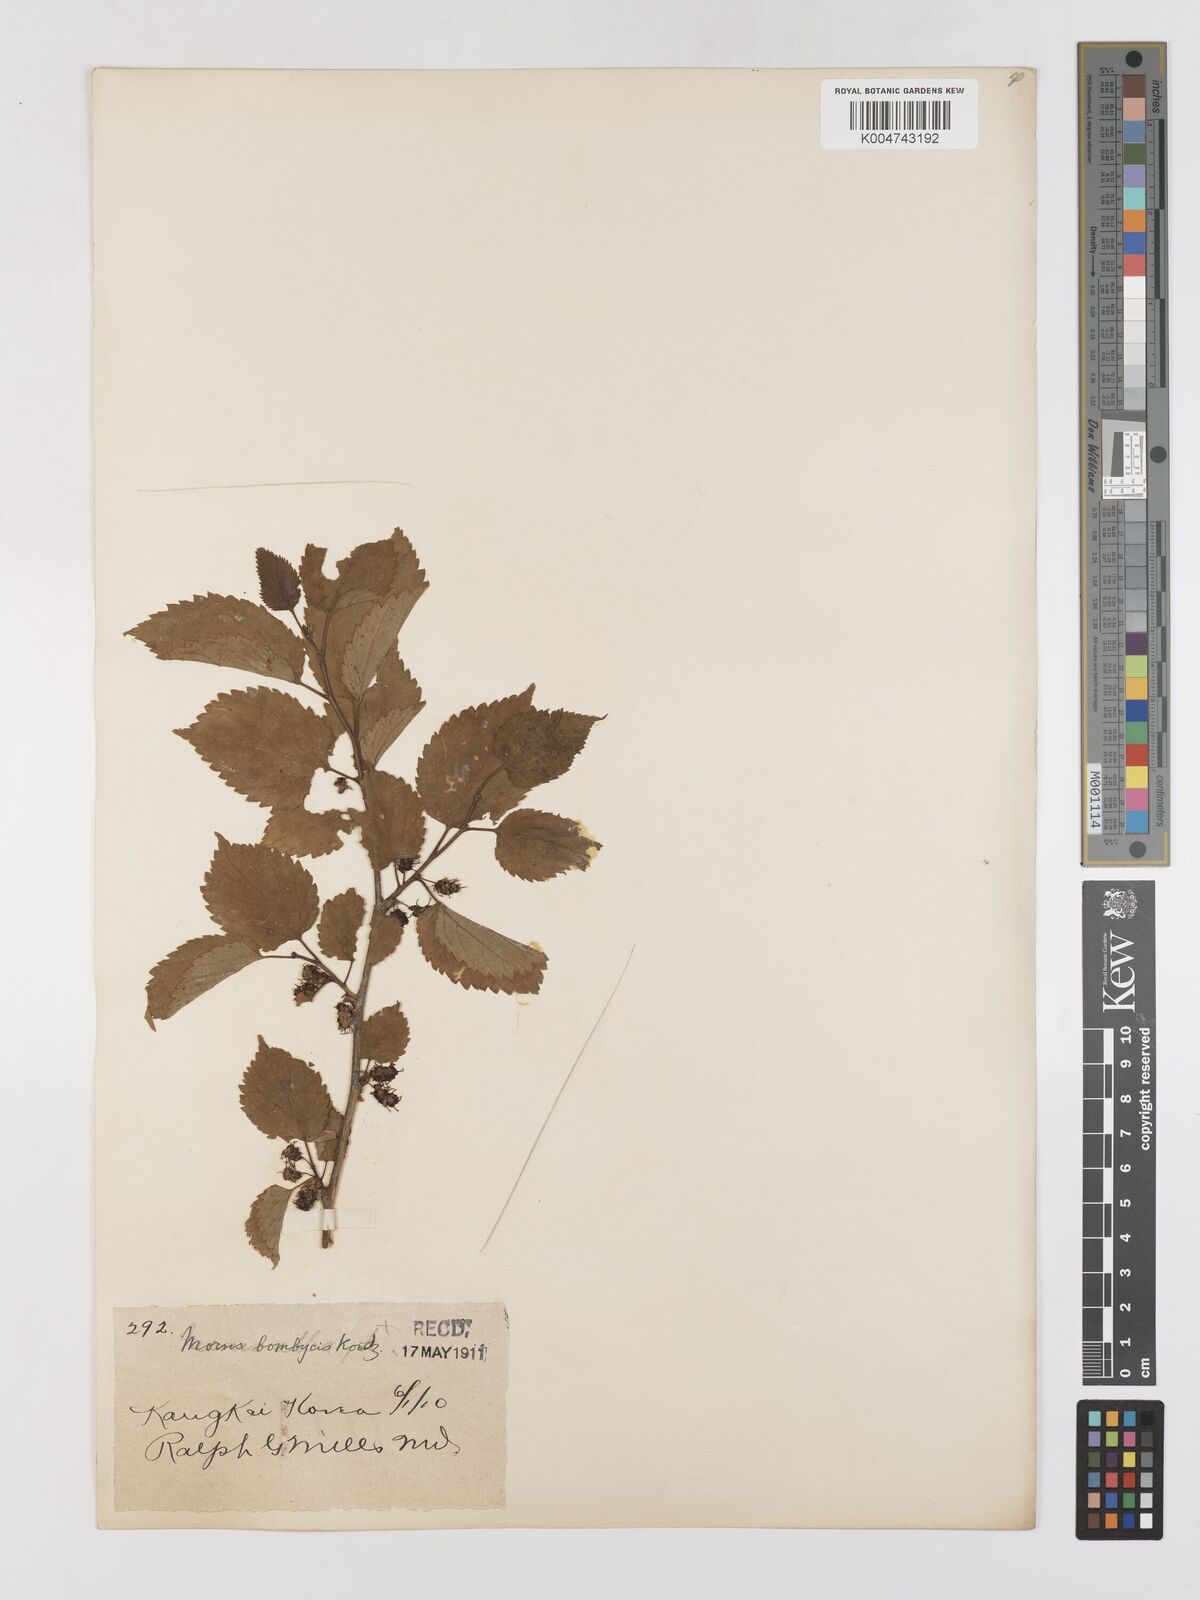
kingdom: Plantae
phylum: Tracheophyta
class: Magnoliopsida
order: Rosales
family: Moraceae
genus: Morus
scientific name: Morus indica
